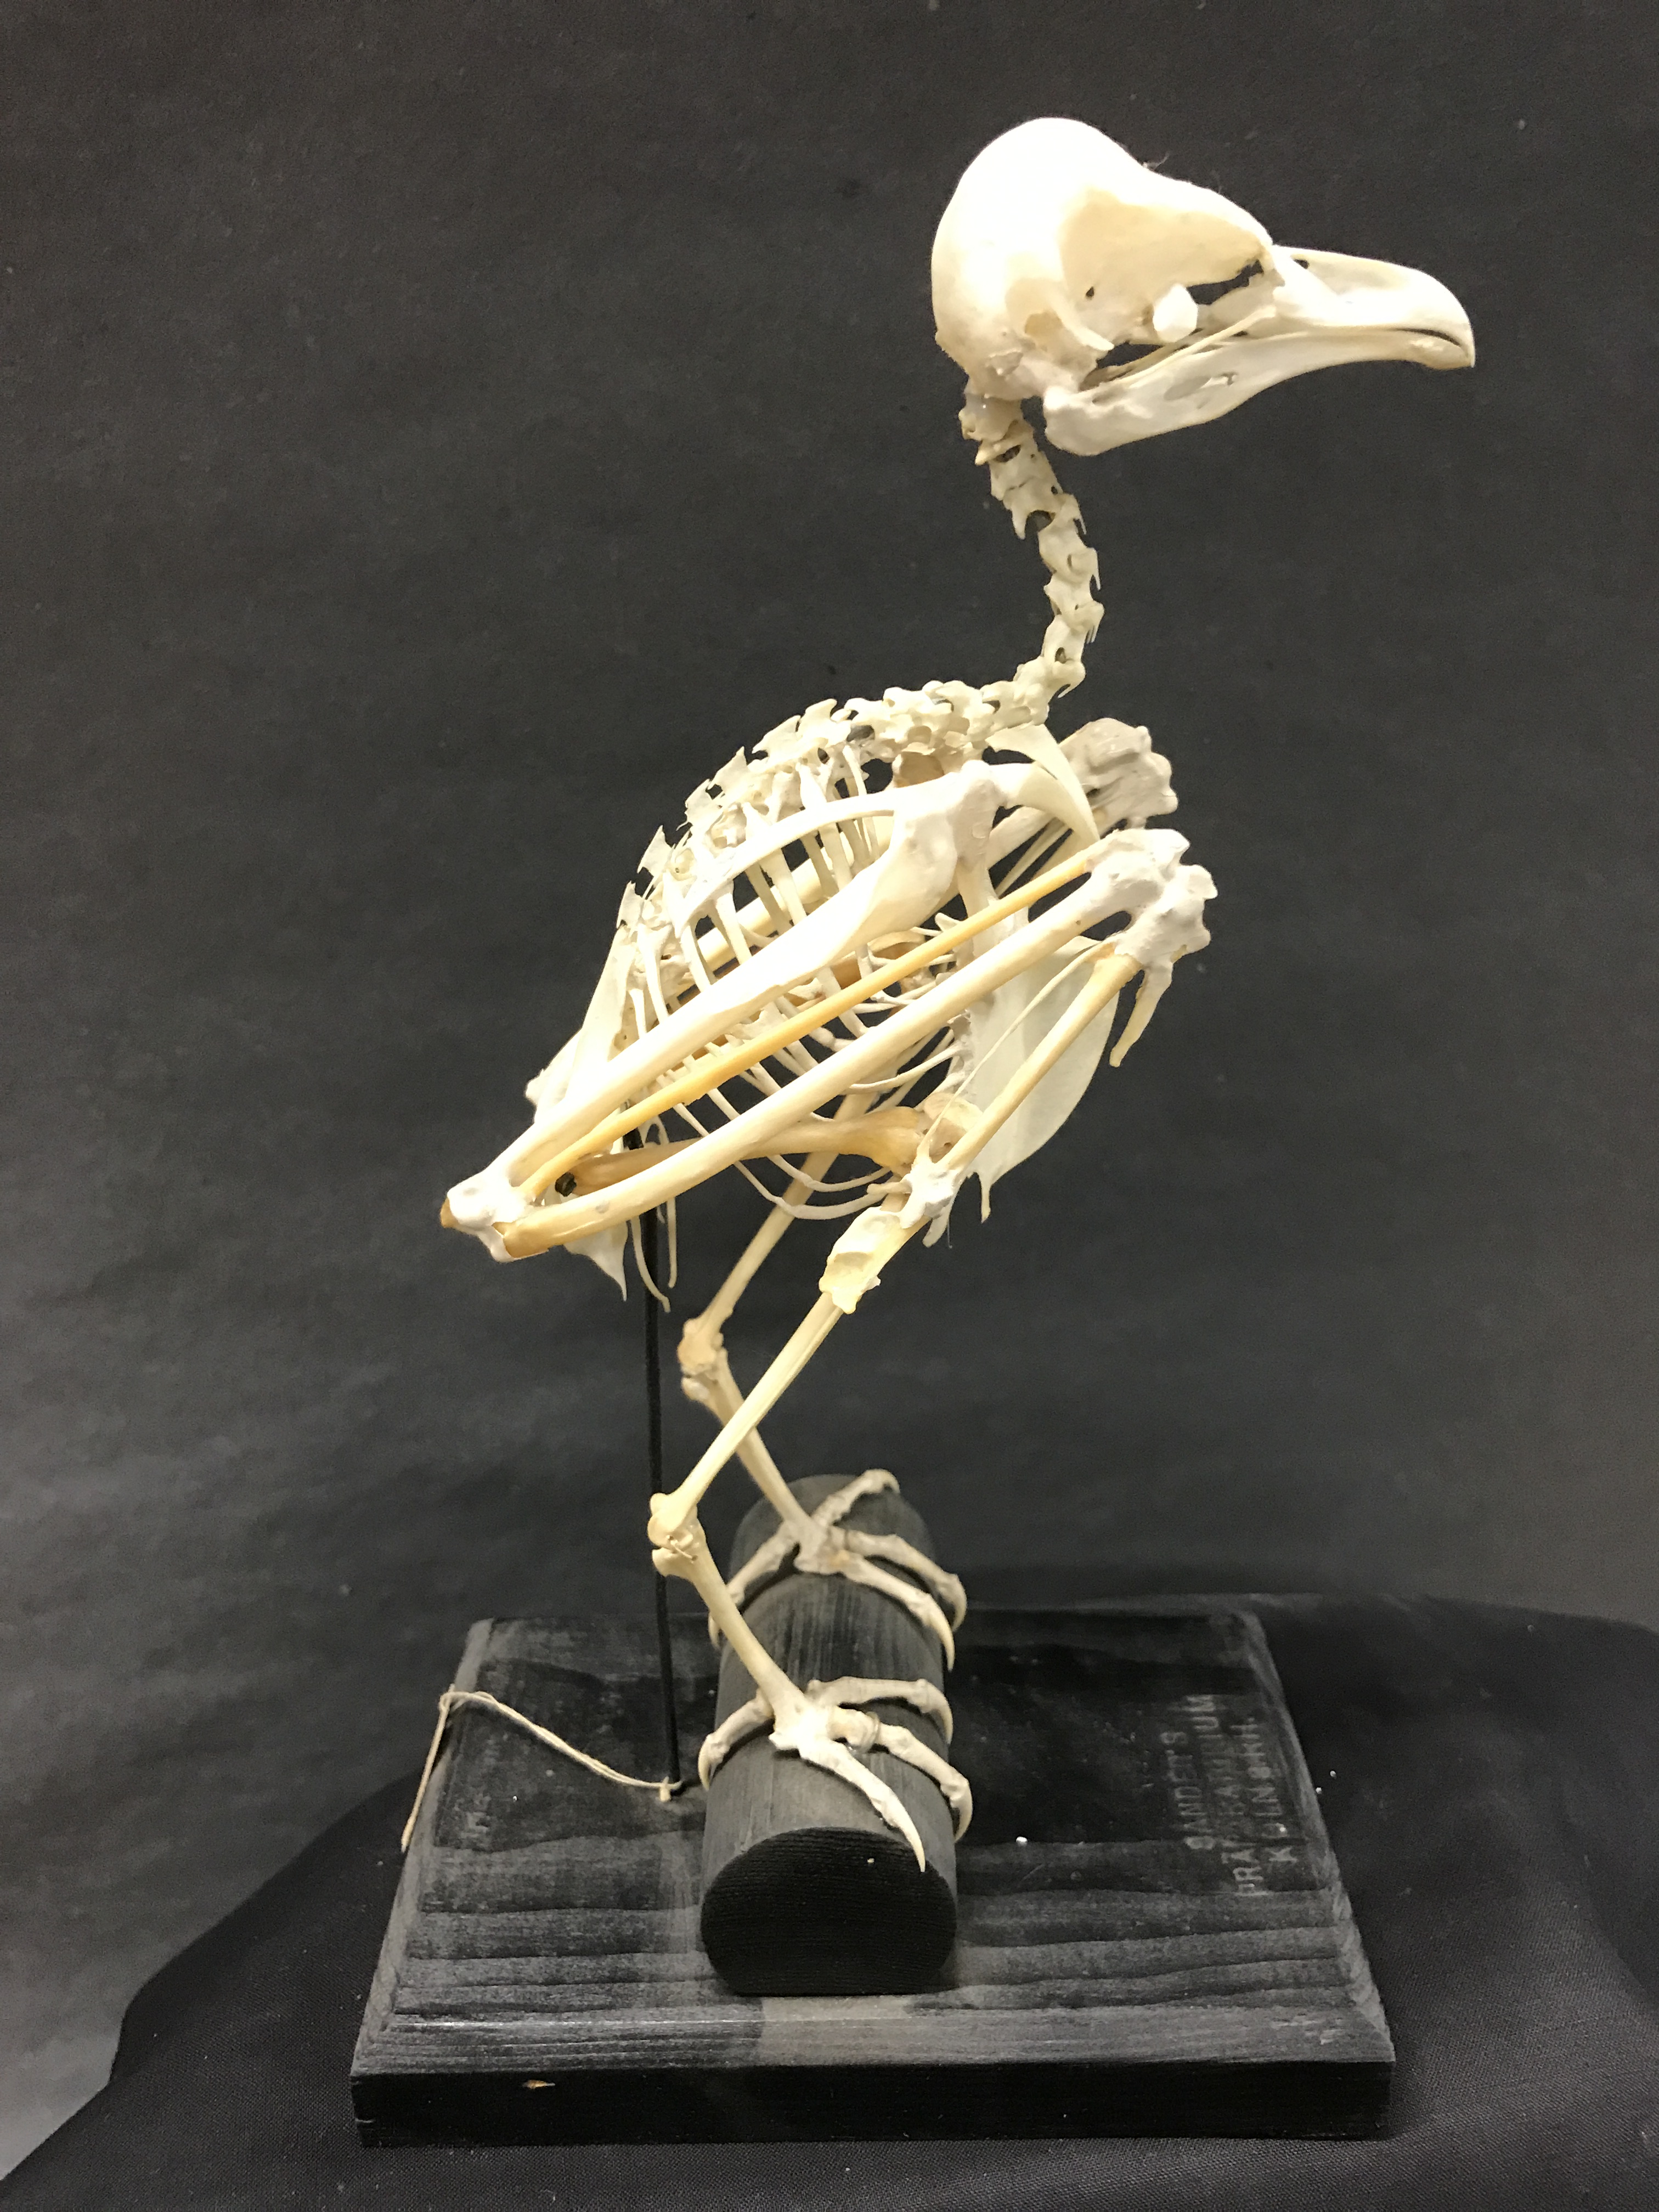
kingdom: Animalia
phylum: Chordata
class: Aves
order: Strigiformes
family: Tytonidae
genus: Tyto
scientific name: Tyto alba
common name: Barn owl
